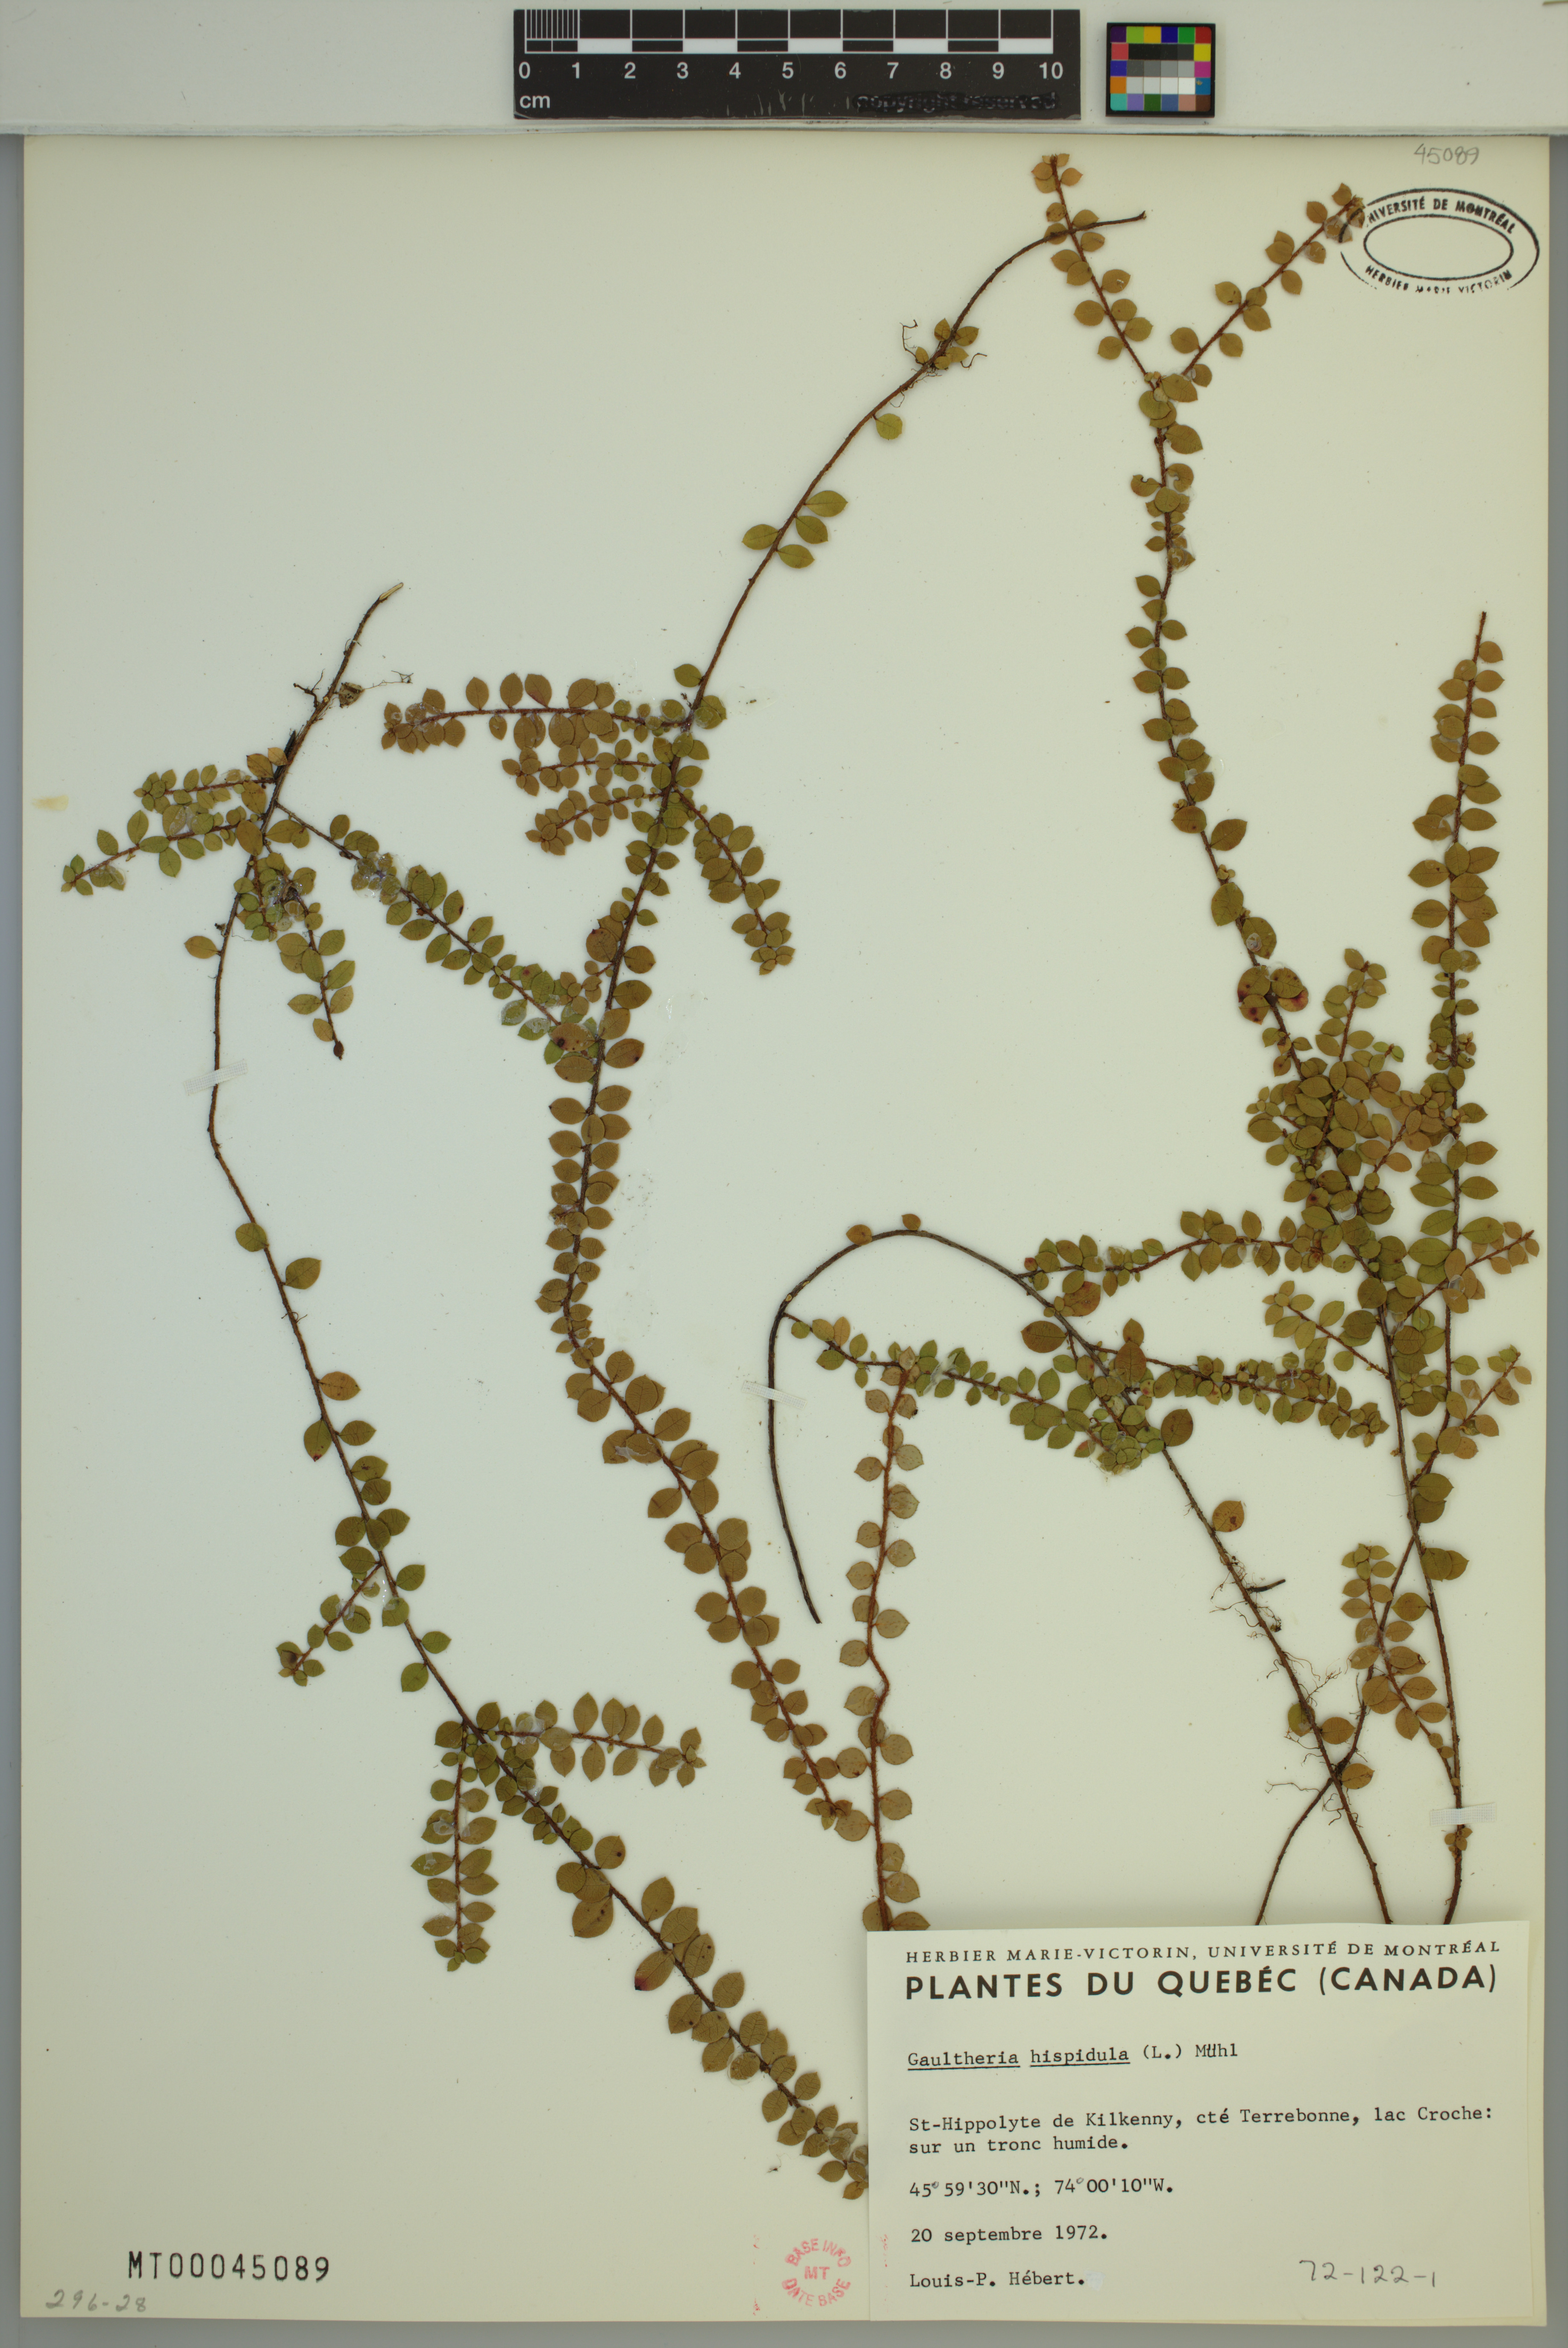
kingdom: Plantae
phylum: Tracheophyta
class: Magnoliopsida
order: Ericales
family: Ericaceae
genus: Gaultheria
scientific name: Gaultheria hispidula
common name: Cancer wintergreen
